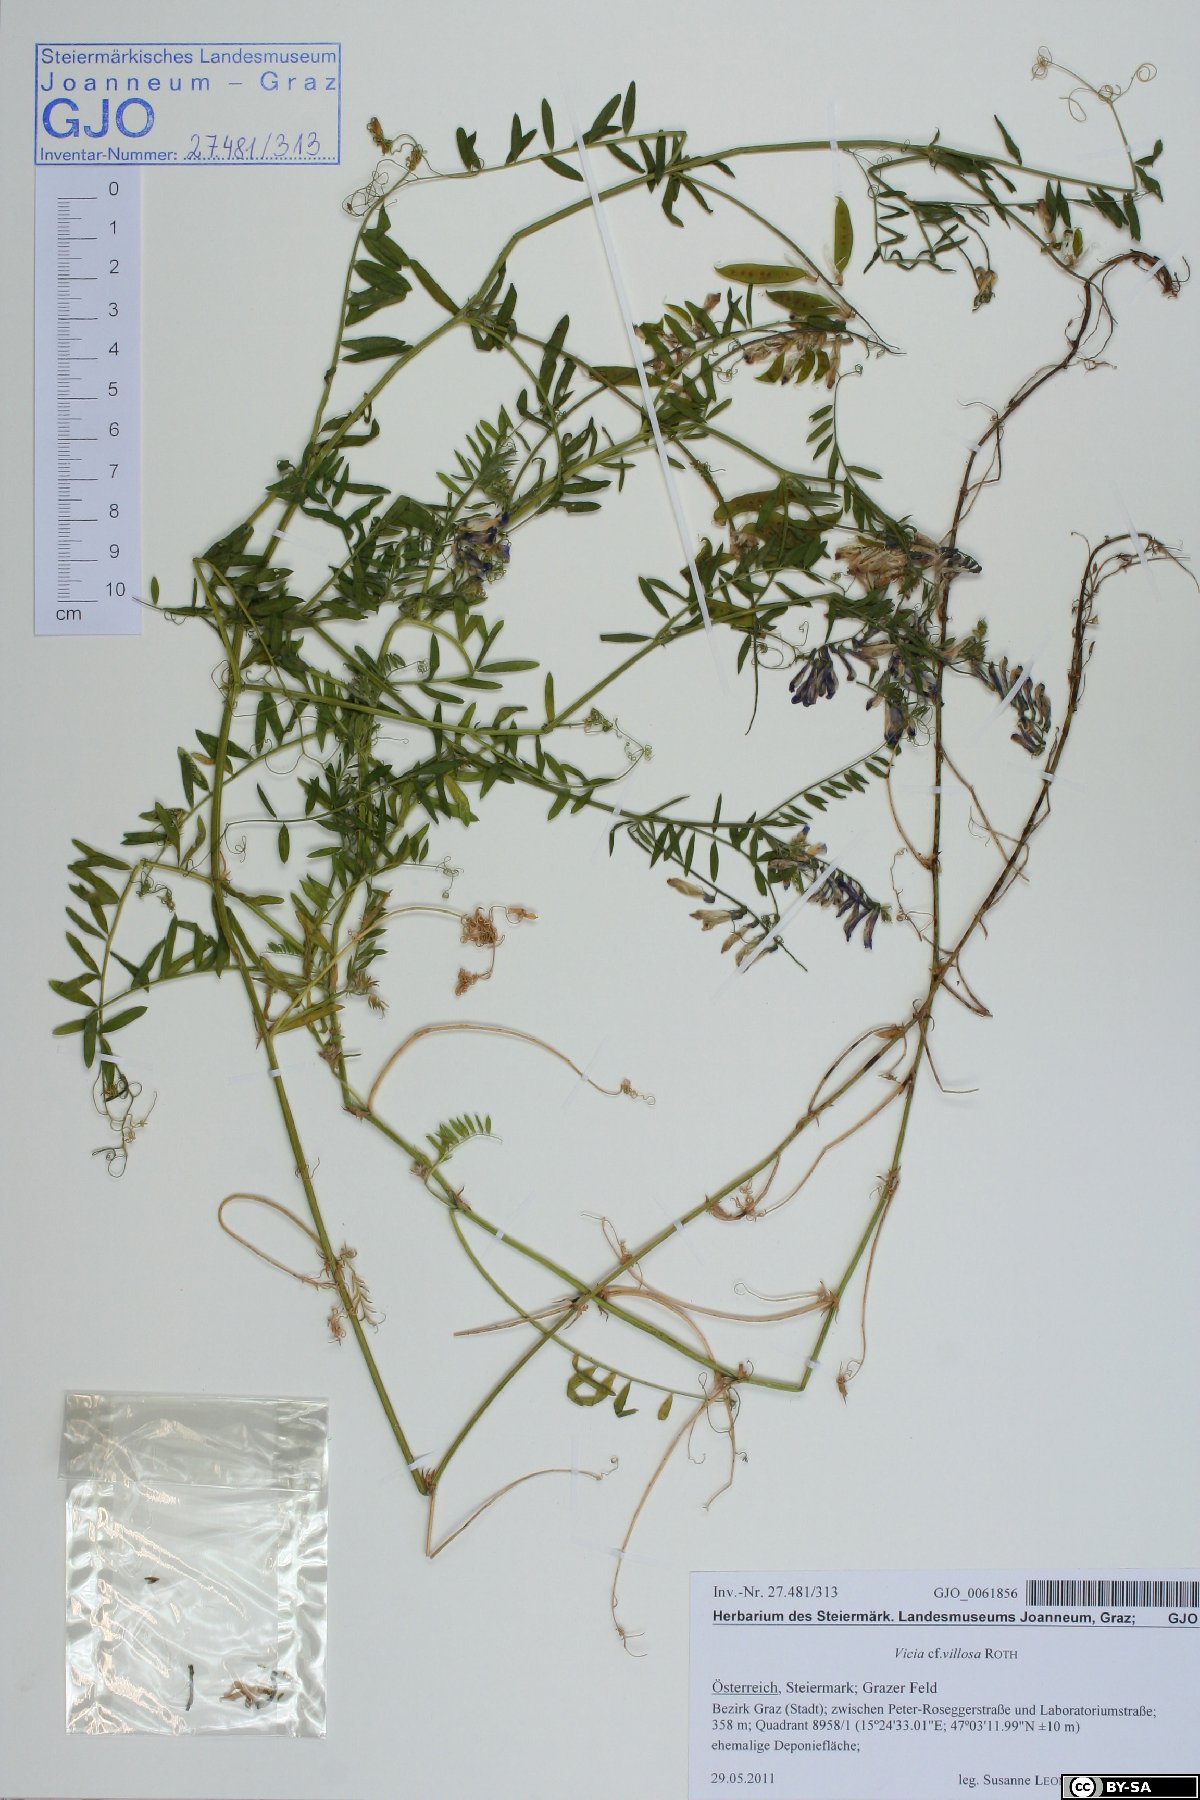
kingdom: Plantae
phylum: Tracheophyta
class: Magnoliopsida
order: Fabales
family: Fabaceae
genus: Vicia
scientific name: Vicia villosa
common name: Fodder vetch
